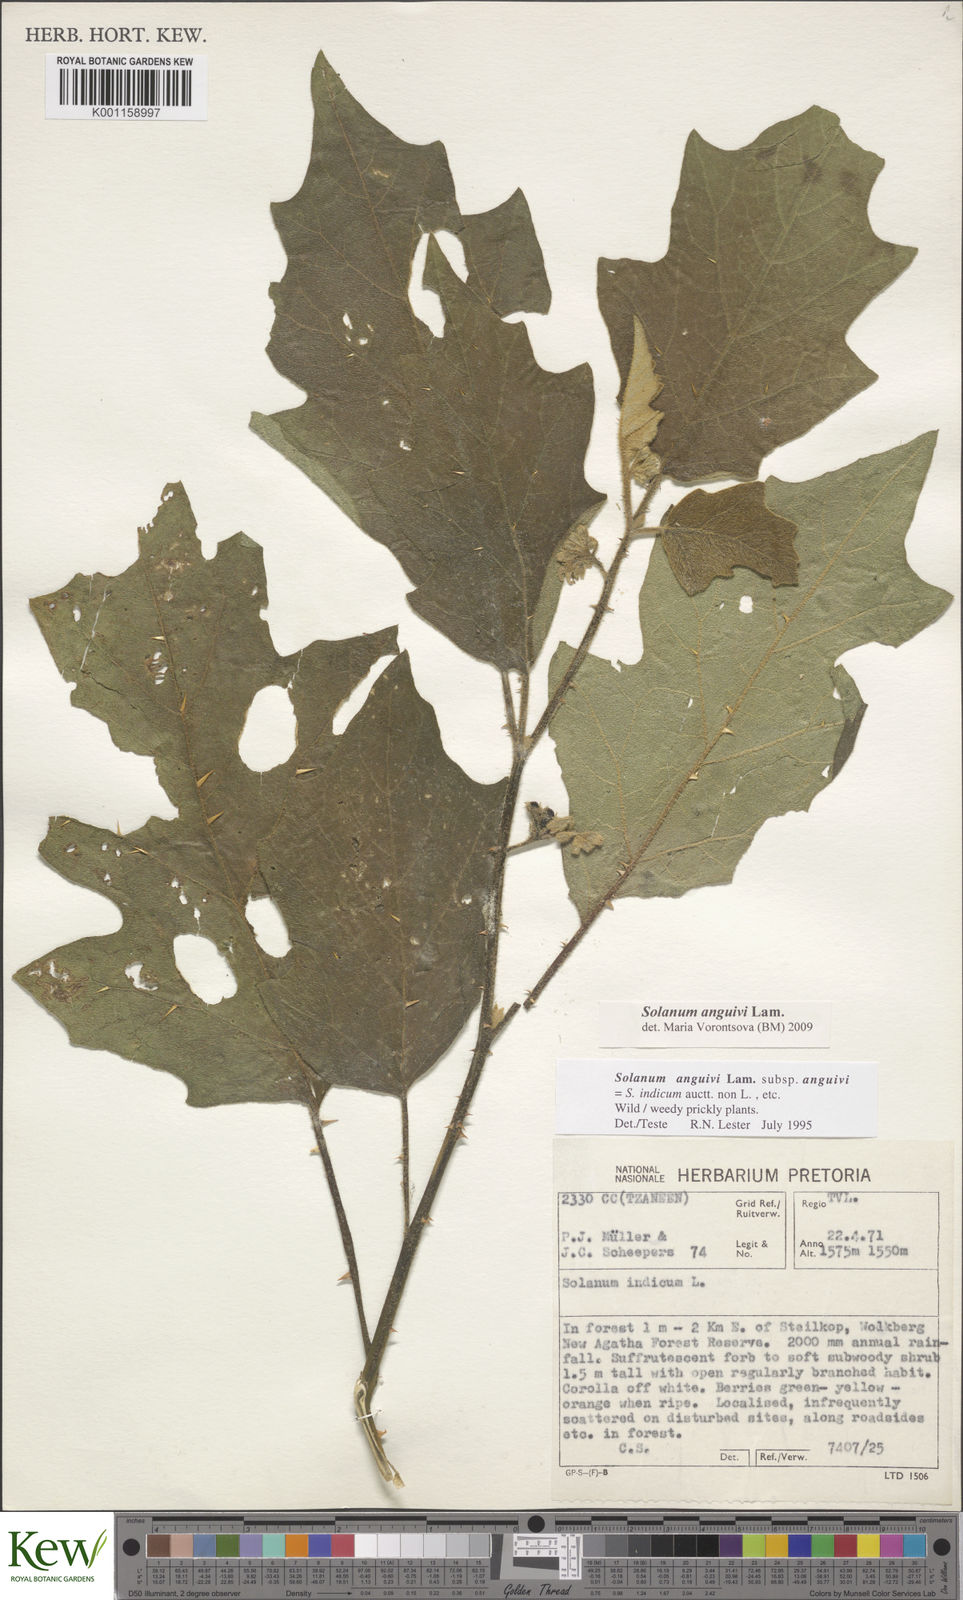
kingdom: Plantae
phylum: Tracheophyta
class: Magnoliopsida
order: Solanales
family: Solanaceae
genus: Solanum
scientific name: Solanum anguivi
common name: Forest bitterberry
